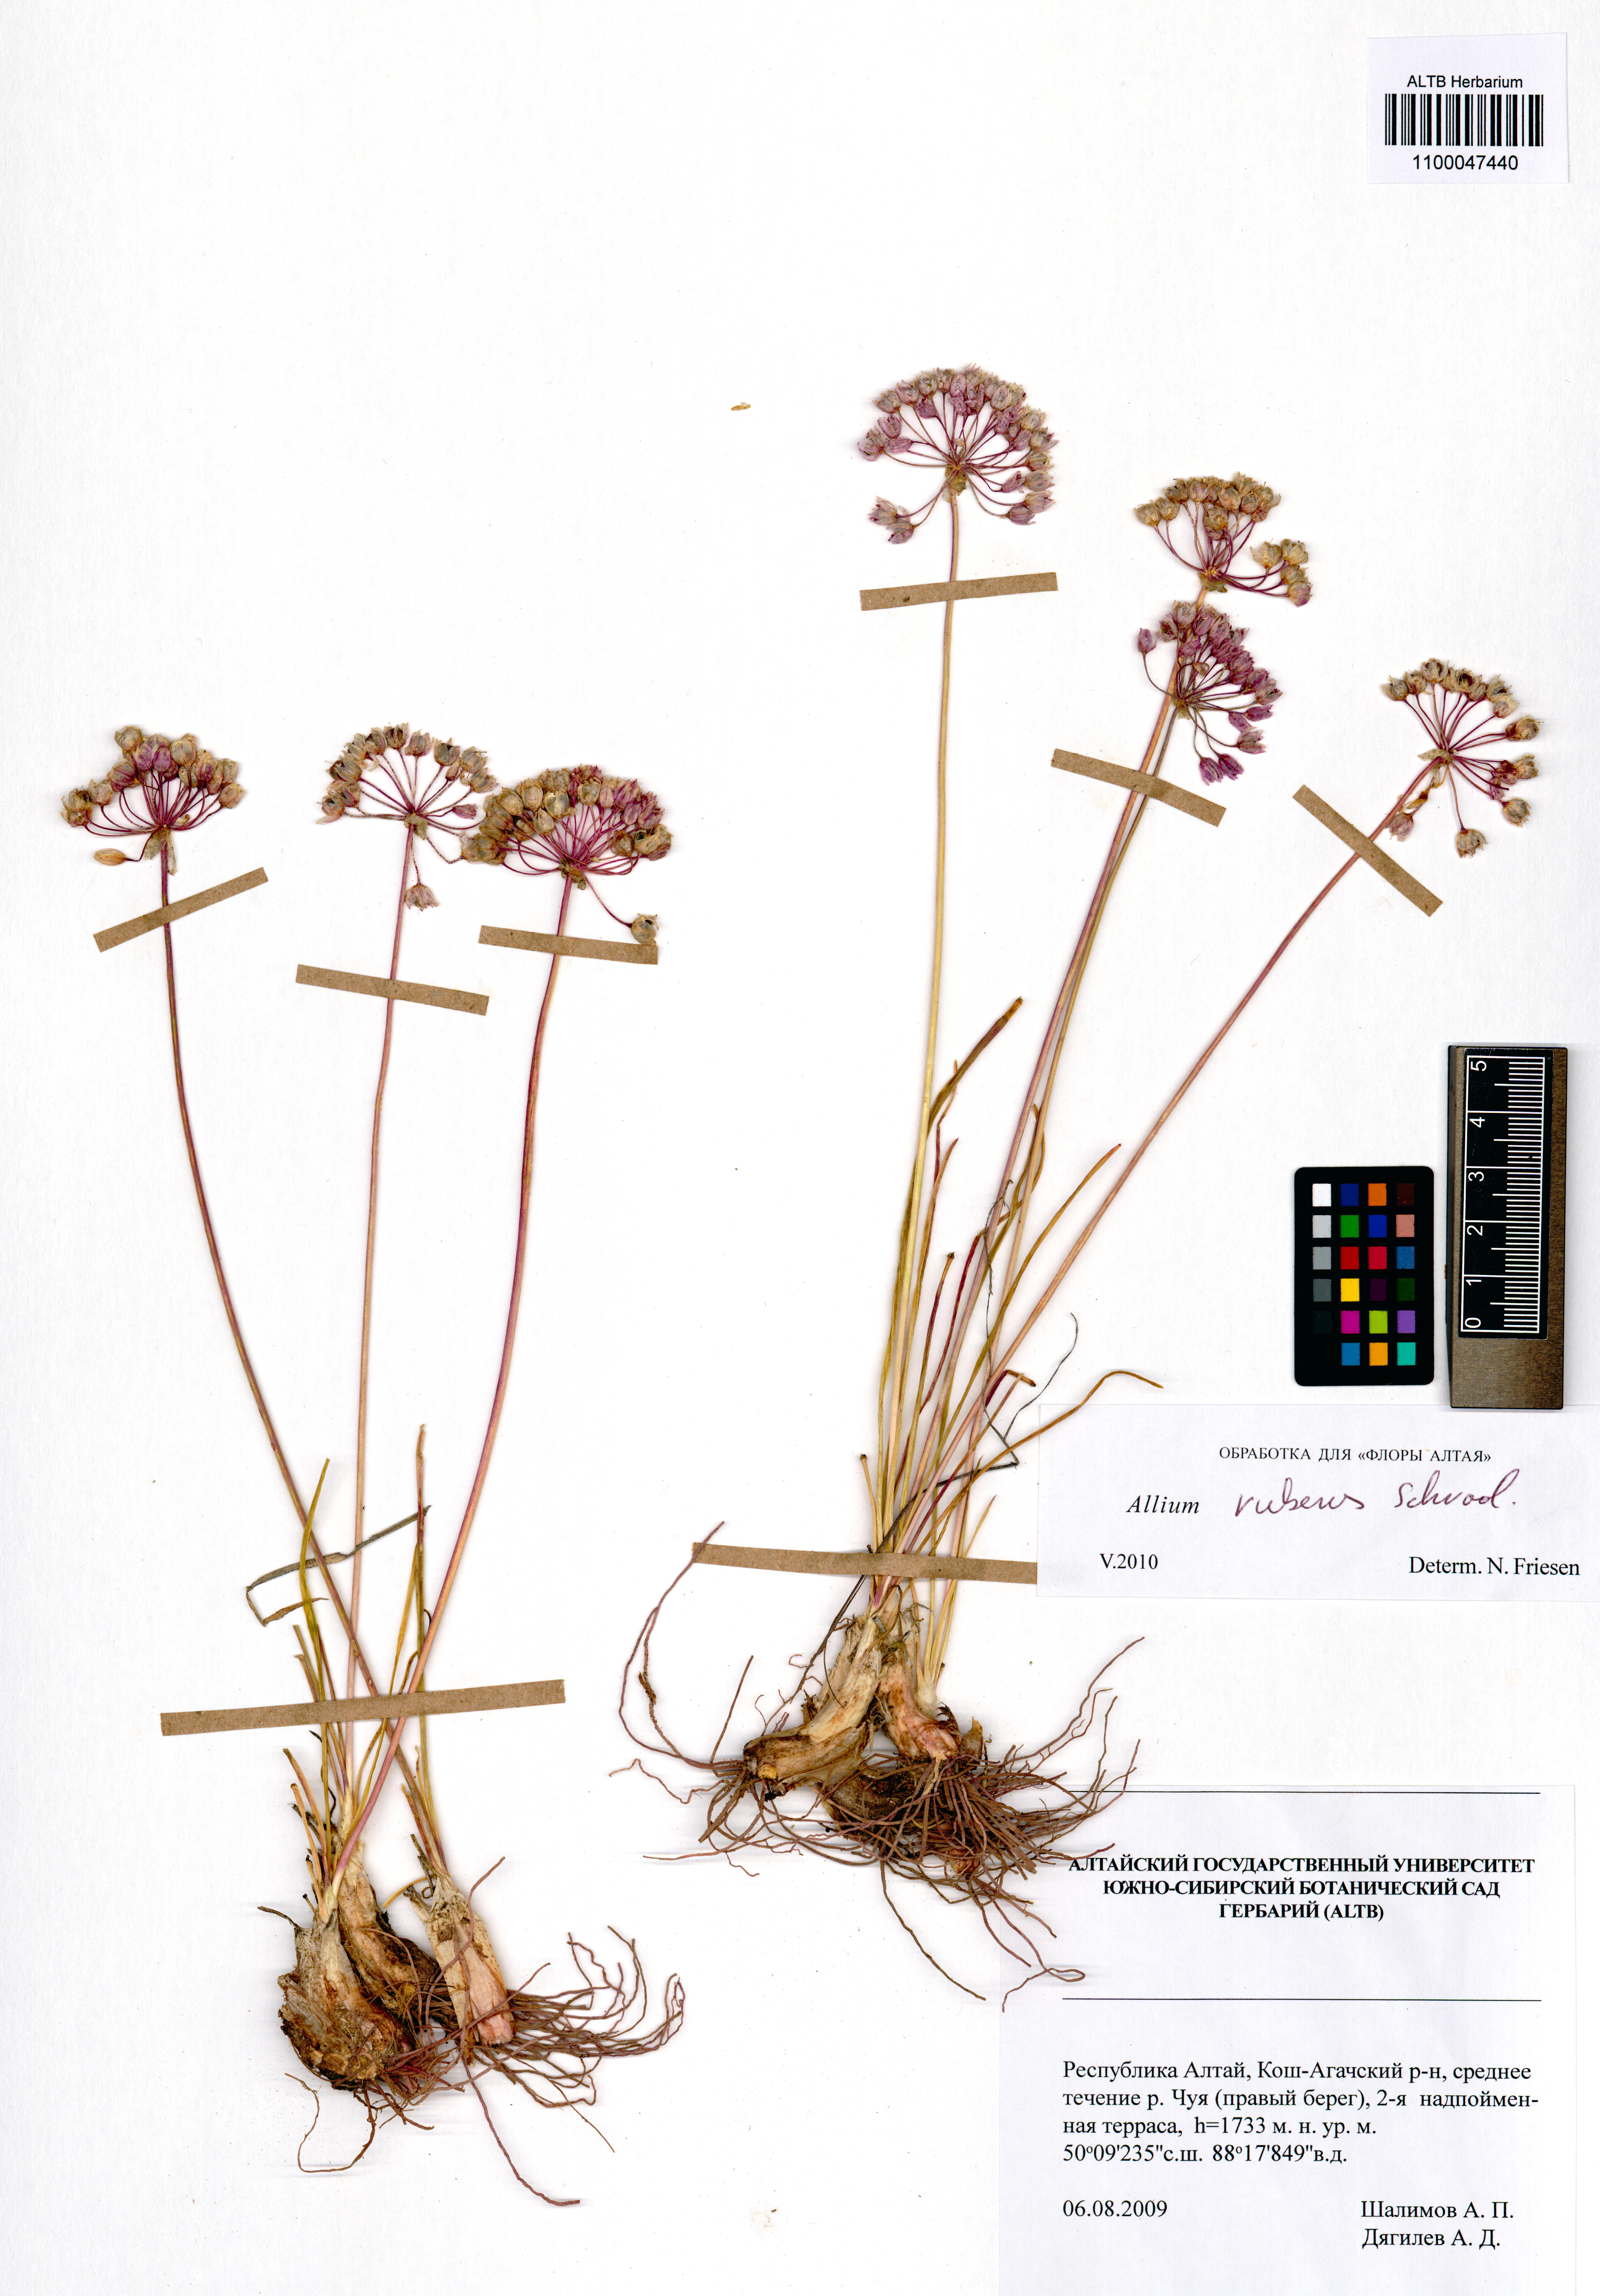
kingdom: Plantae
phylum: Tracheophyta
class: Liliopsida
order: Asparagales
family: Amaryllidaceae
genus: Allium
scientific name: Allium rubens
